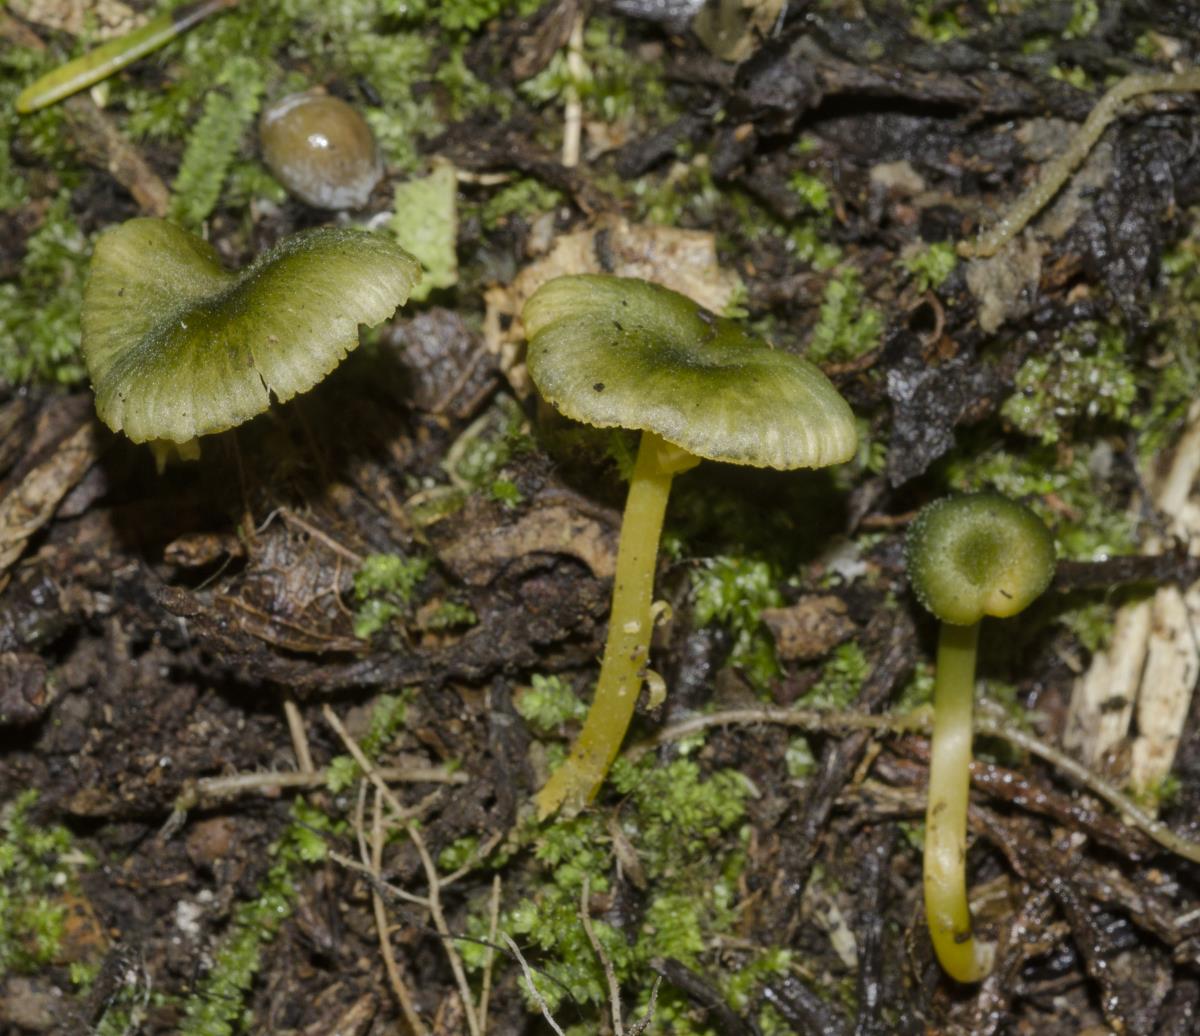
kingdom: Fungi
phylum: Basidiomycota
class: Agaricomycetes
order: Agaricales
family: Entolomataceae
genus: Entoloma
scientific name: Entoloma glaucoroseum
